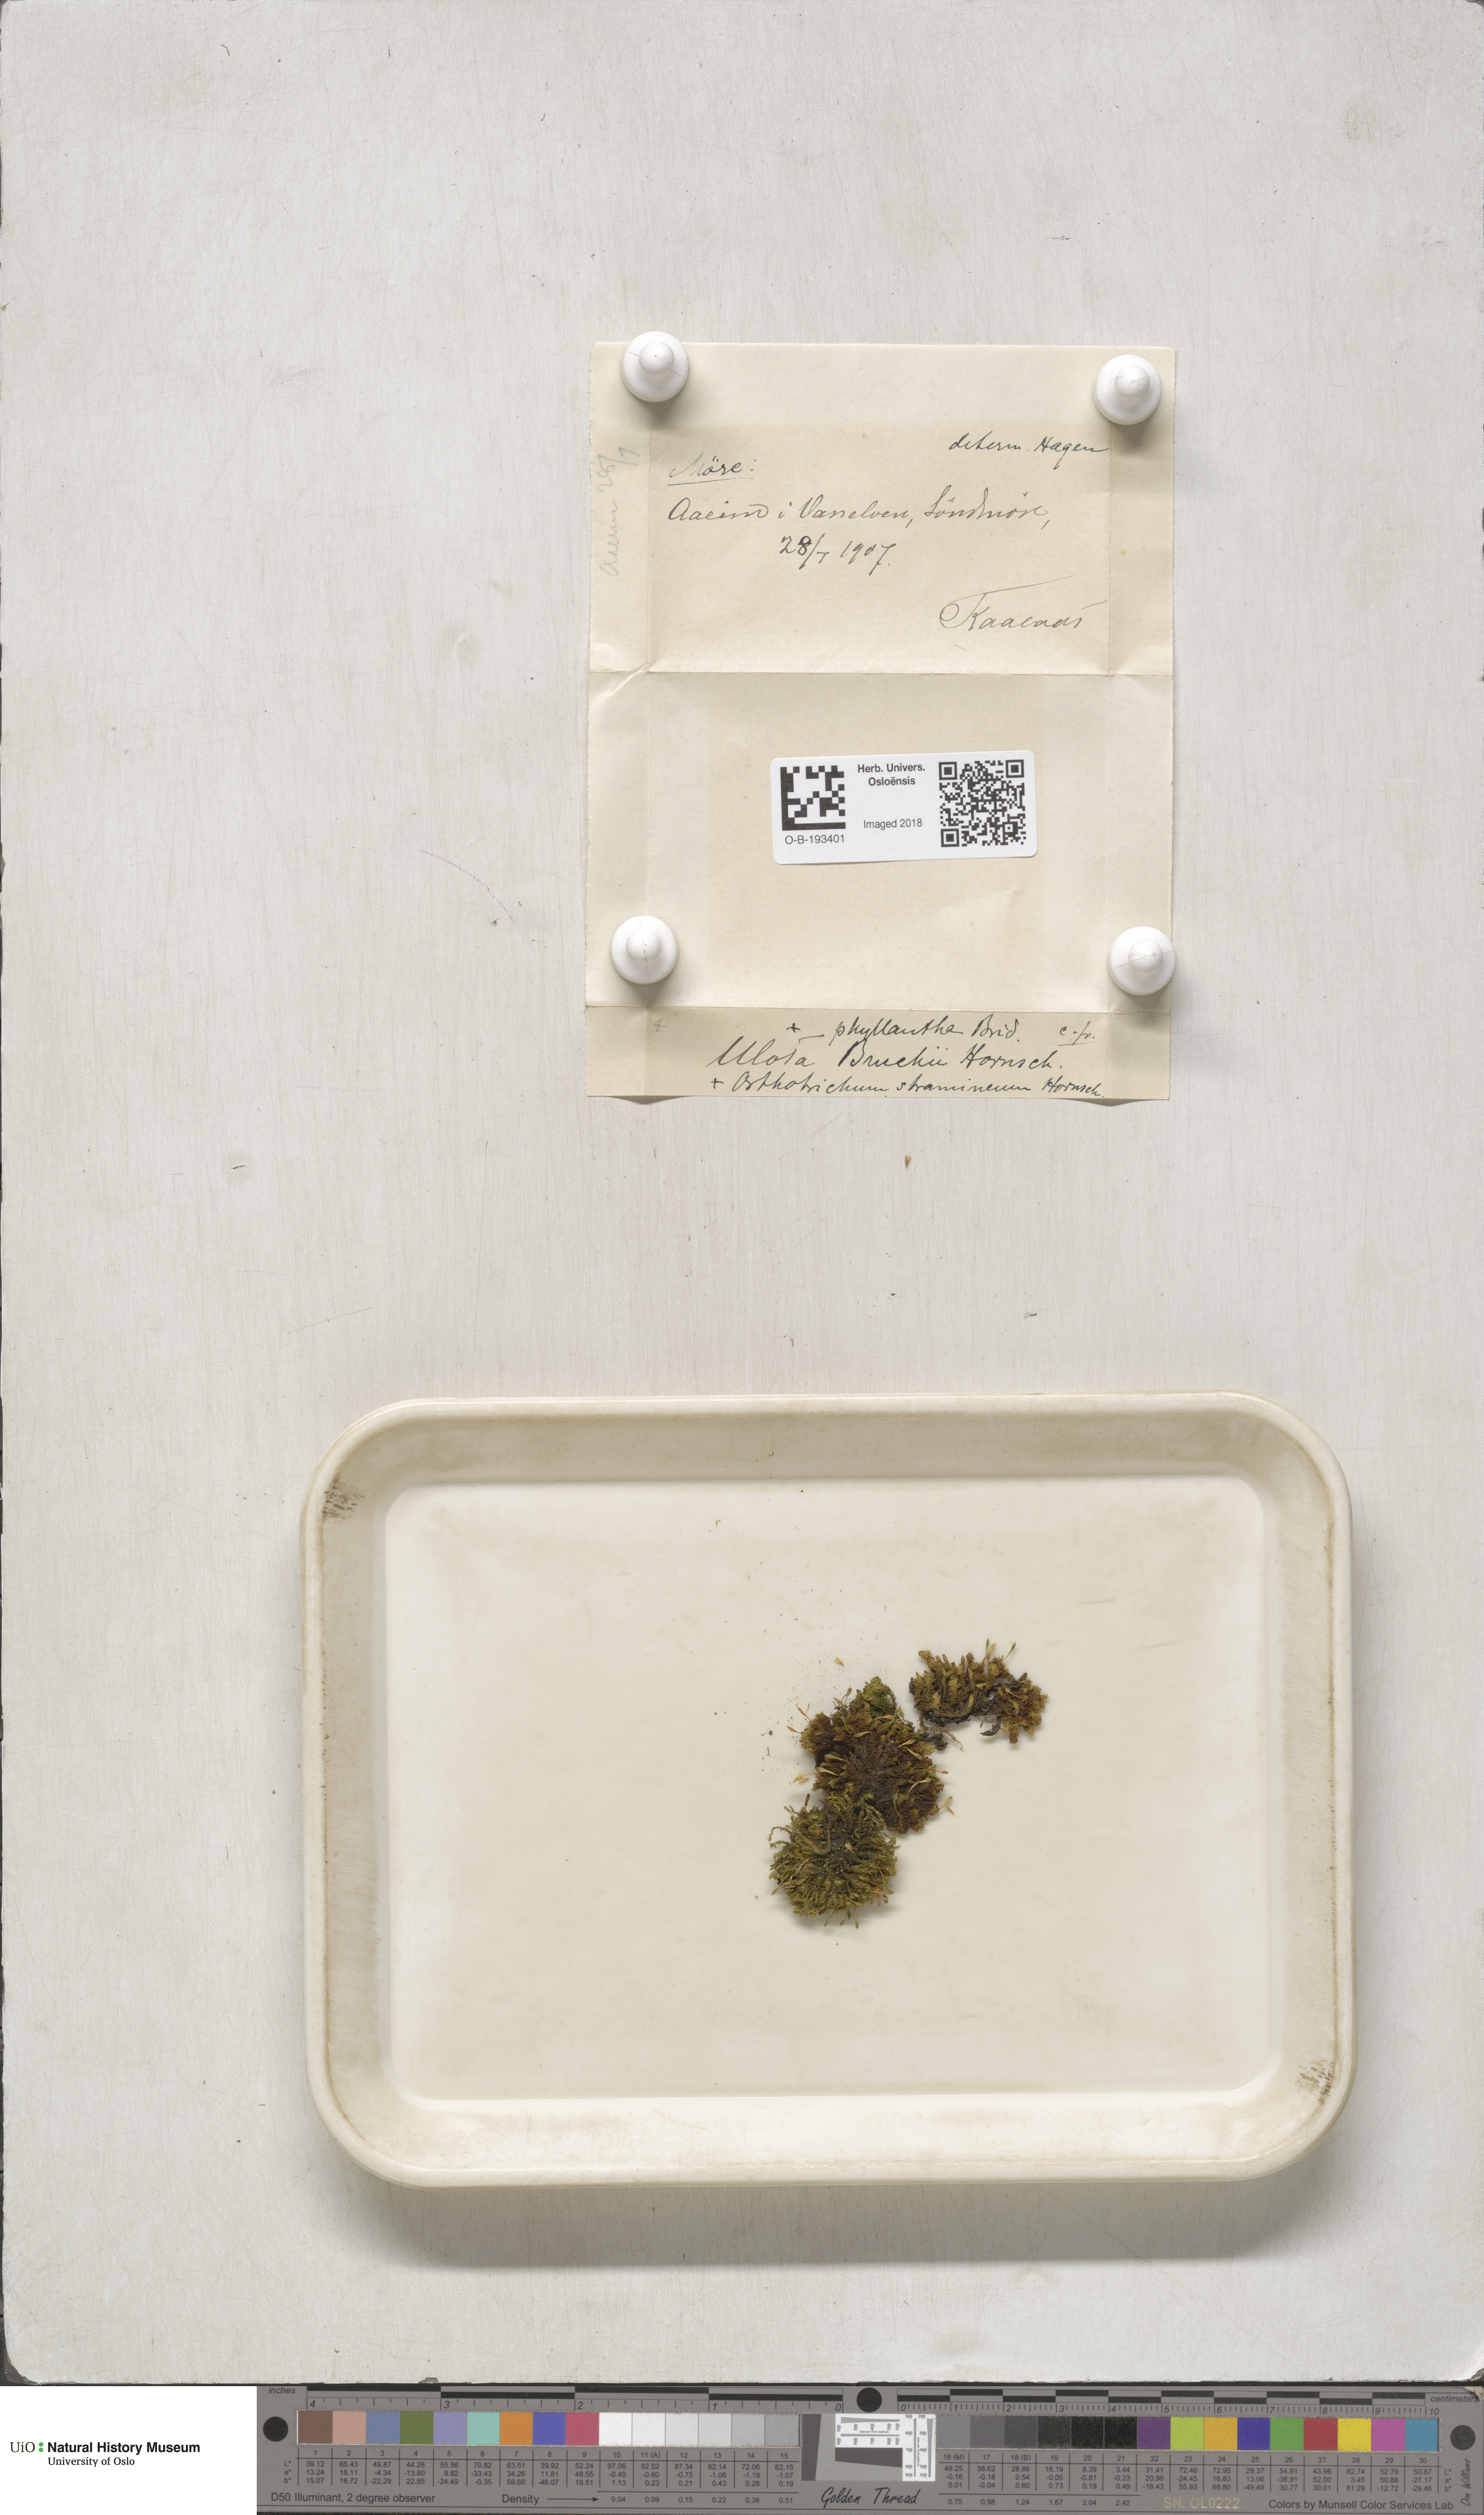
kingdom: Plantae
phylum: Bryophyta
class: Bryopsida
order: Orthotrichales
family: Orthotrichaceae
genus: Ulota
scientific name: Ulota bruchii
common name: Bruch's pincushion
